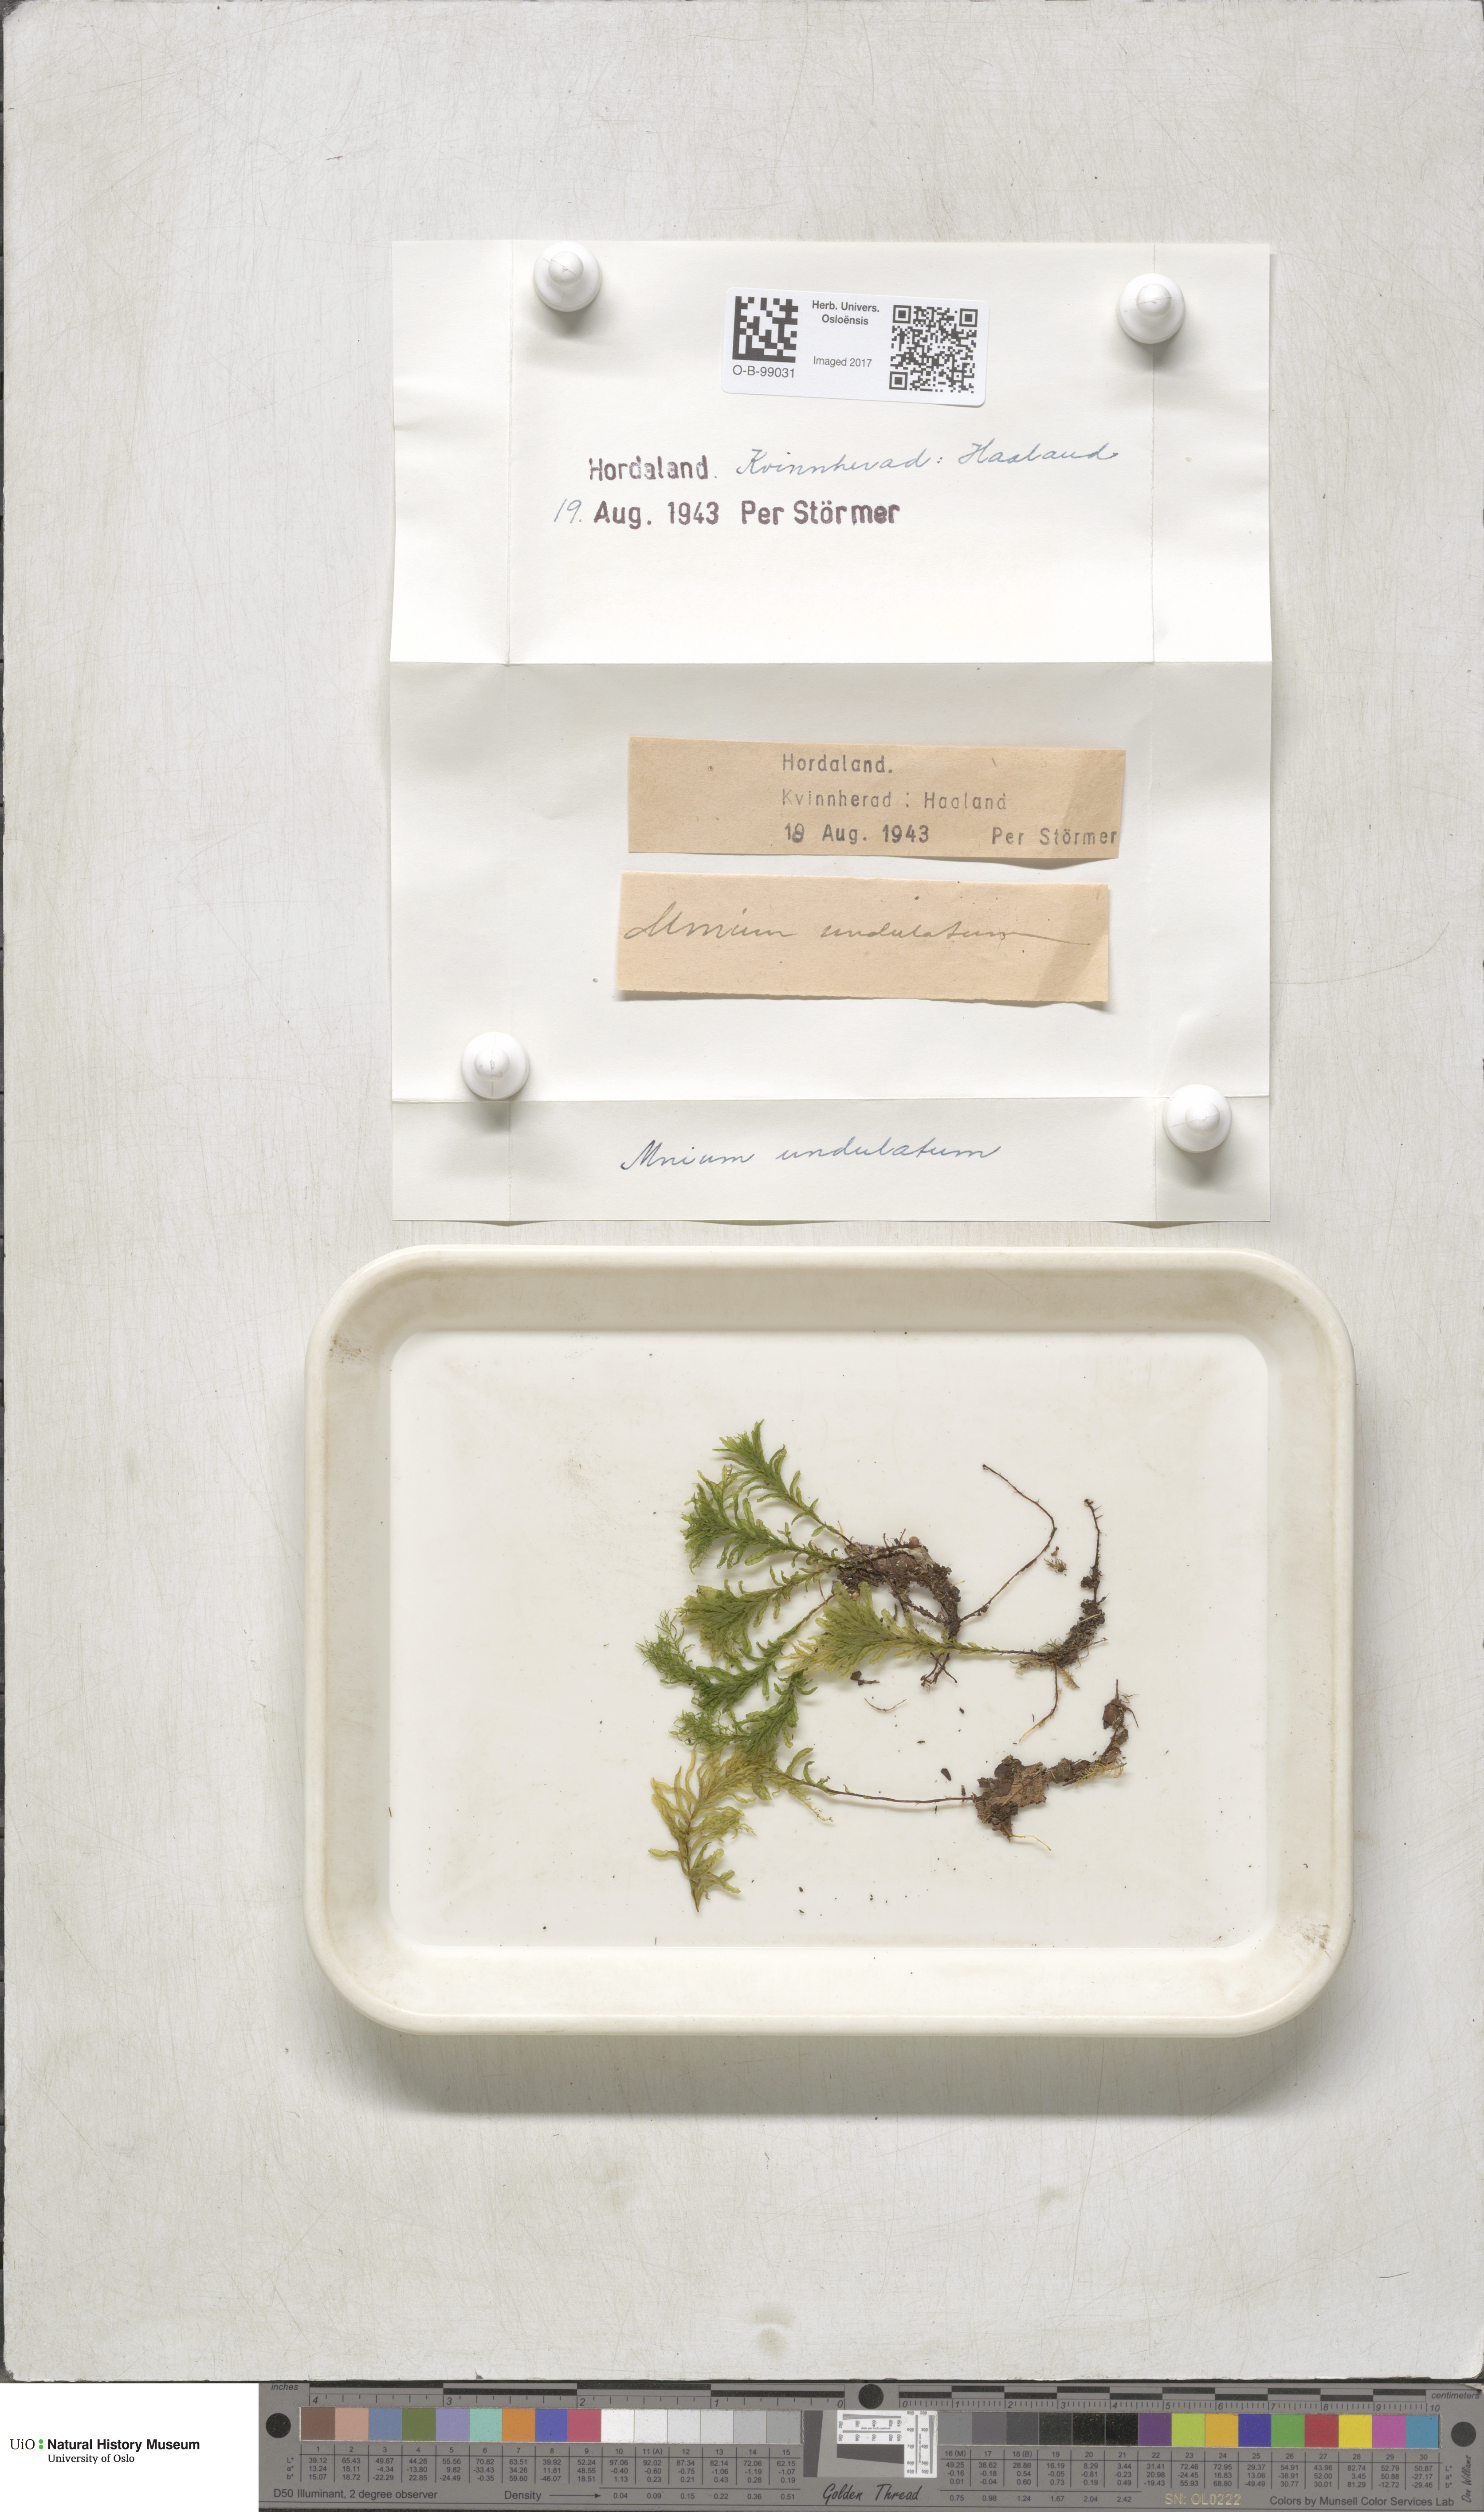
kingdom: Plantae
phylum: Bryophyta
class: Bryopsida
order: Bryales
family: Mniaceae
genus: Plagiomnium
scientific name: Plagiomnium undulatum
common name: Hart's-tongue thyme-moss
